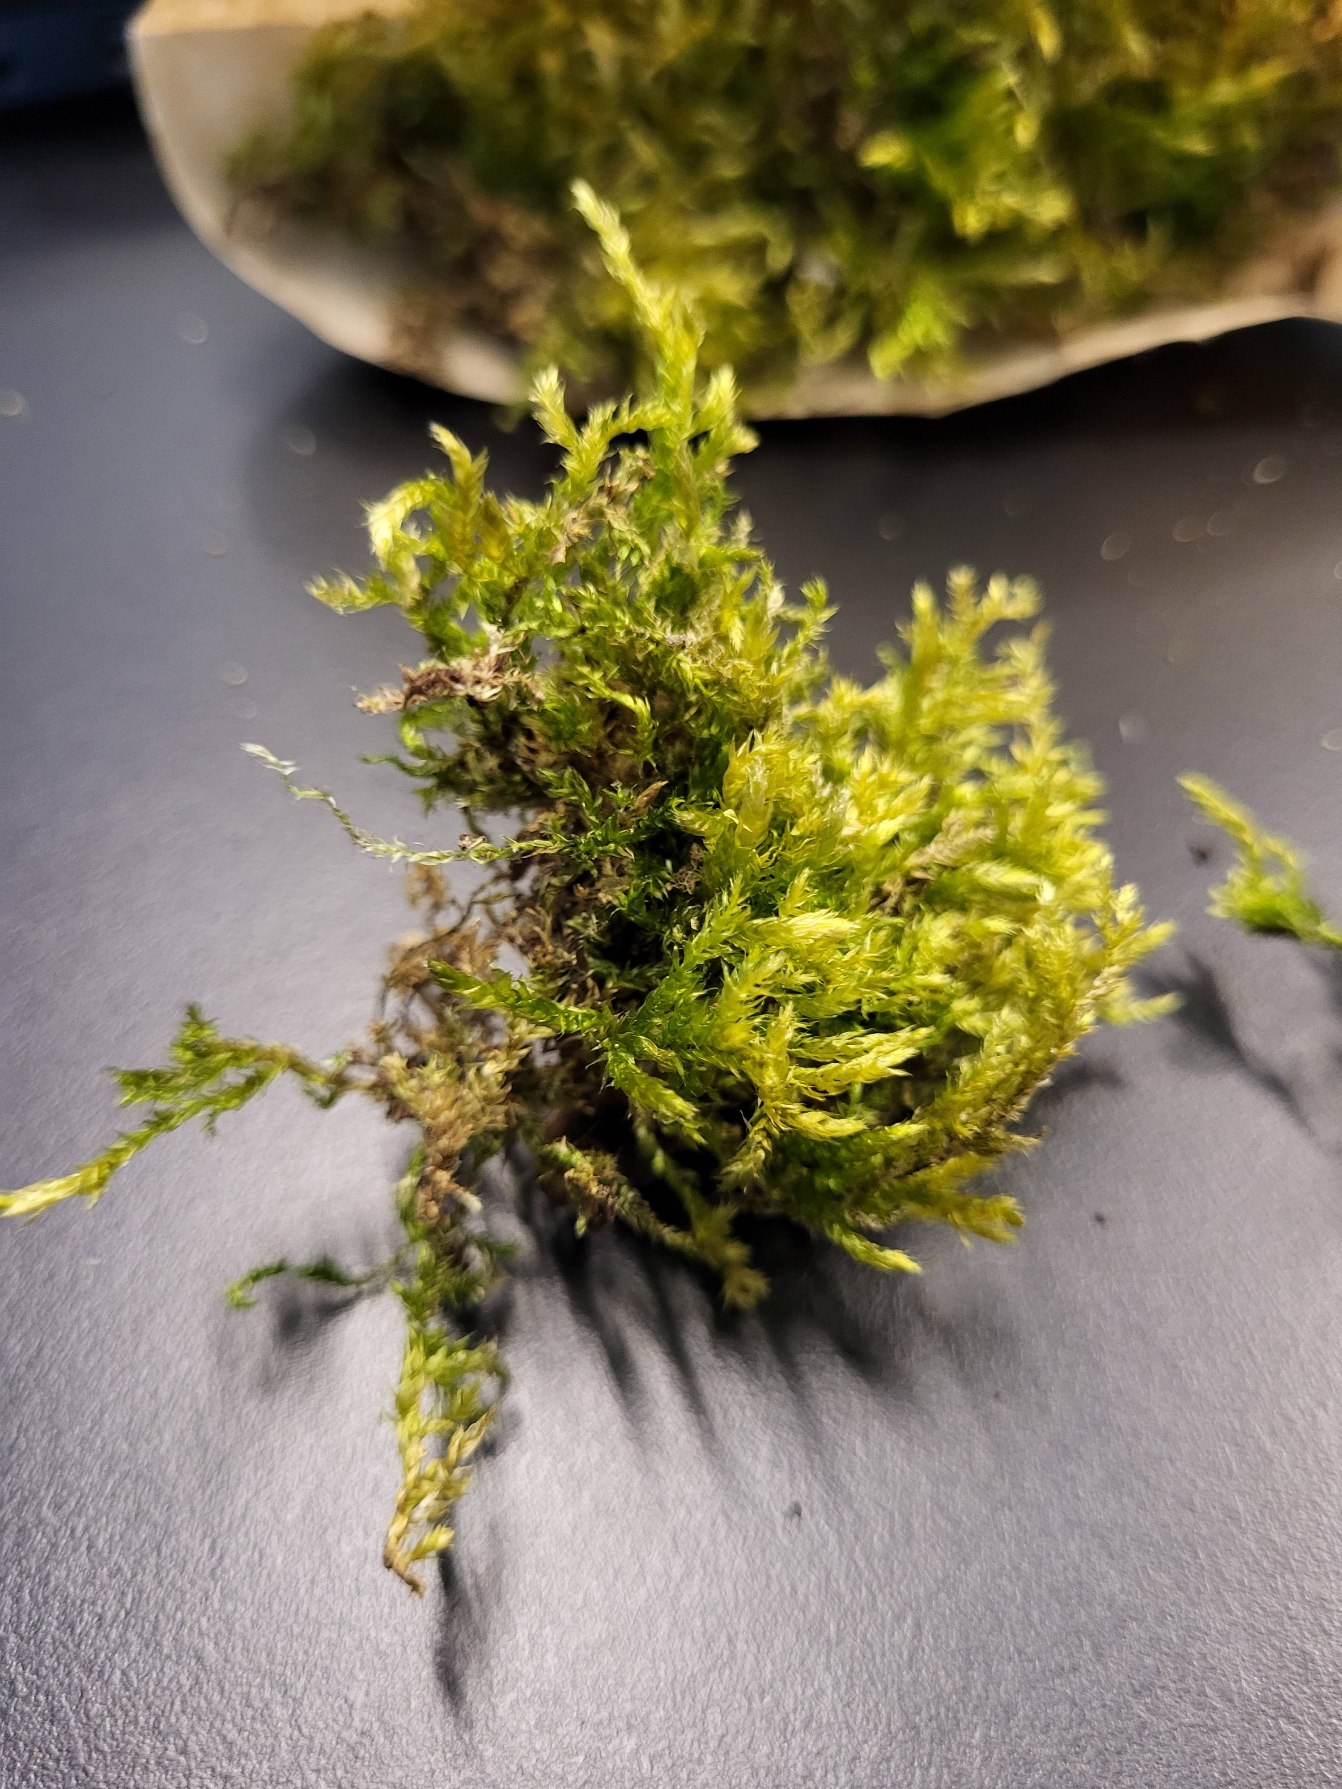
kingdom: Plantae
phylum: Bryophyta
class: Bryopsida
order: Hypnales
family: Brachytheciaceae
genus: Brachythecium
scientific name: Brachythecium rutabulum
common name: Almindelig kortkapsel
